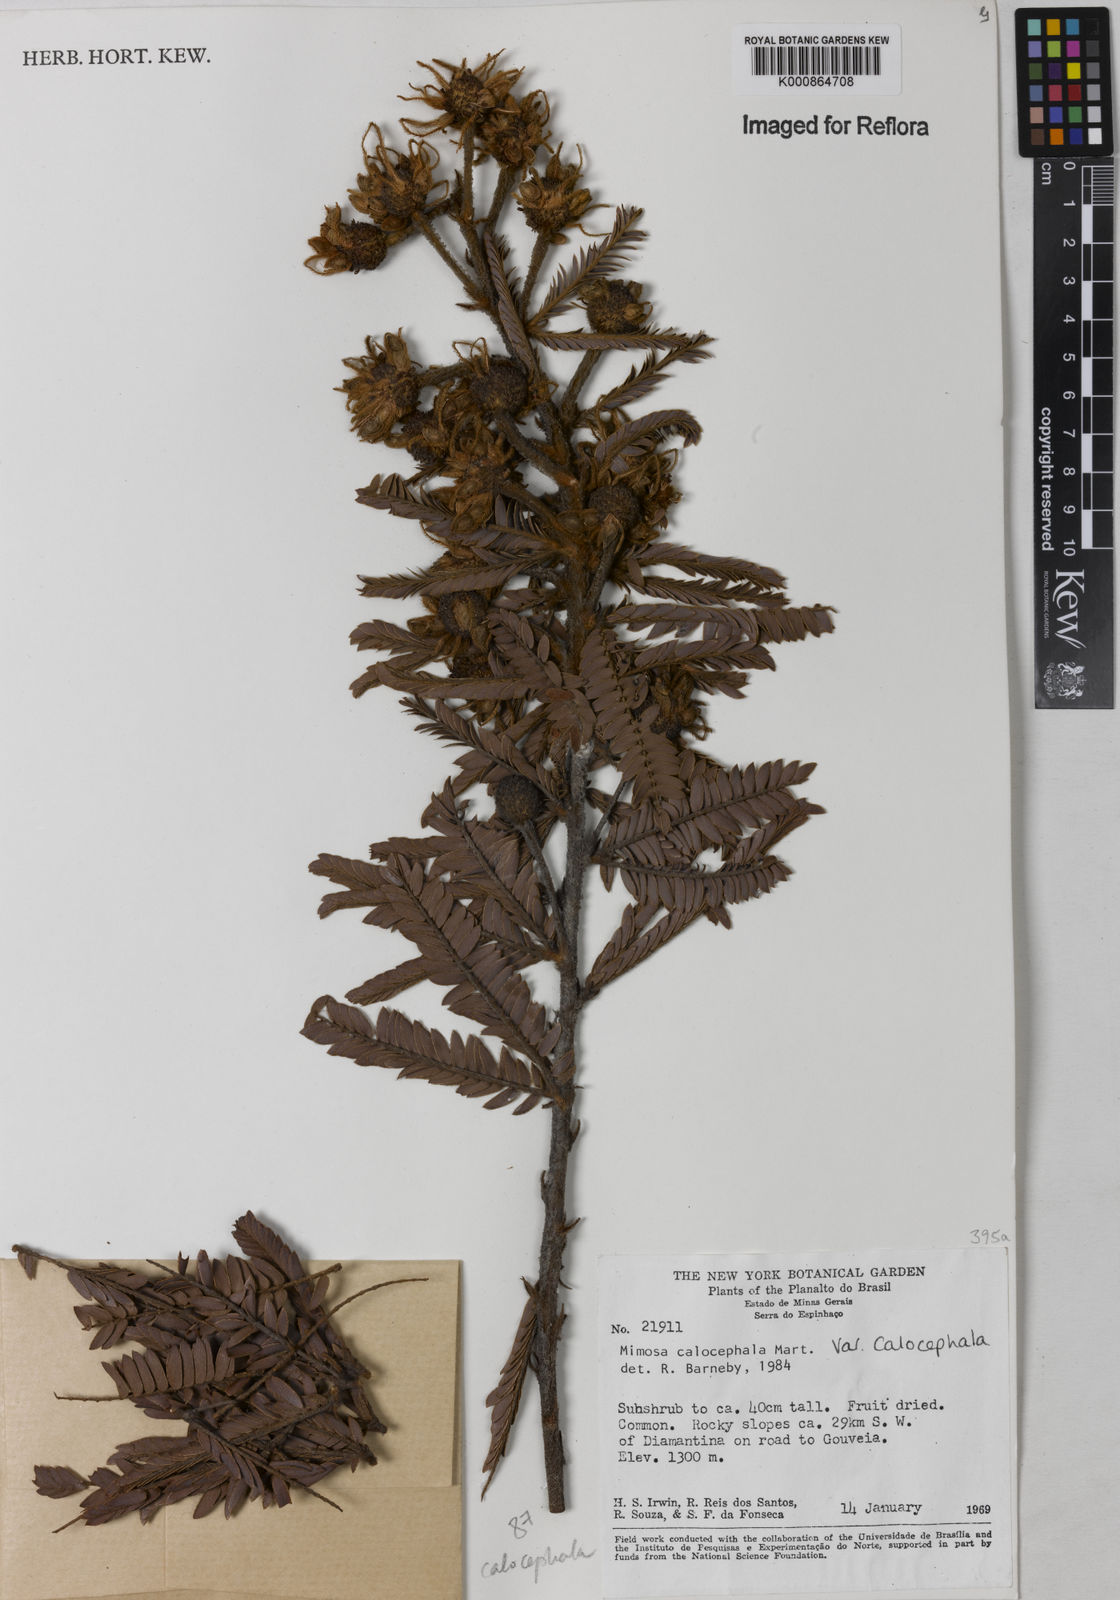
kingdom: Plantae
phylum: Tracheophyta
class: Magnoliopsida
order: Fabales
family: Fabaceae
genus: Mimosa
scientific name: Mimosa calocephala
